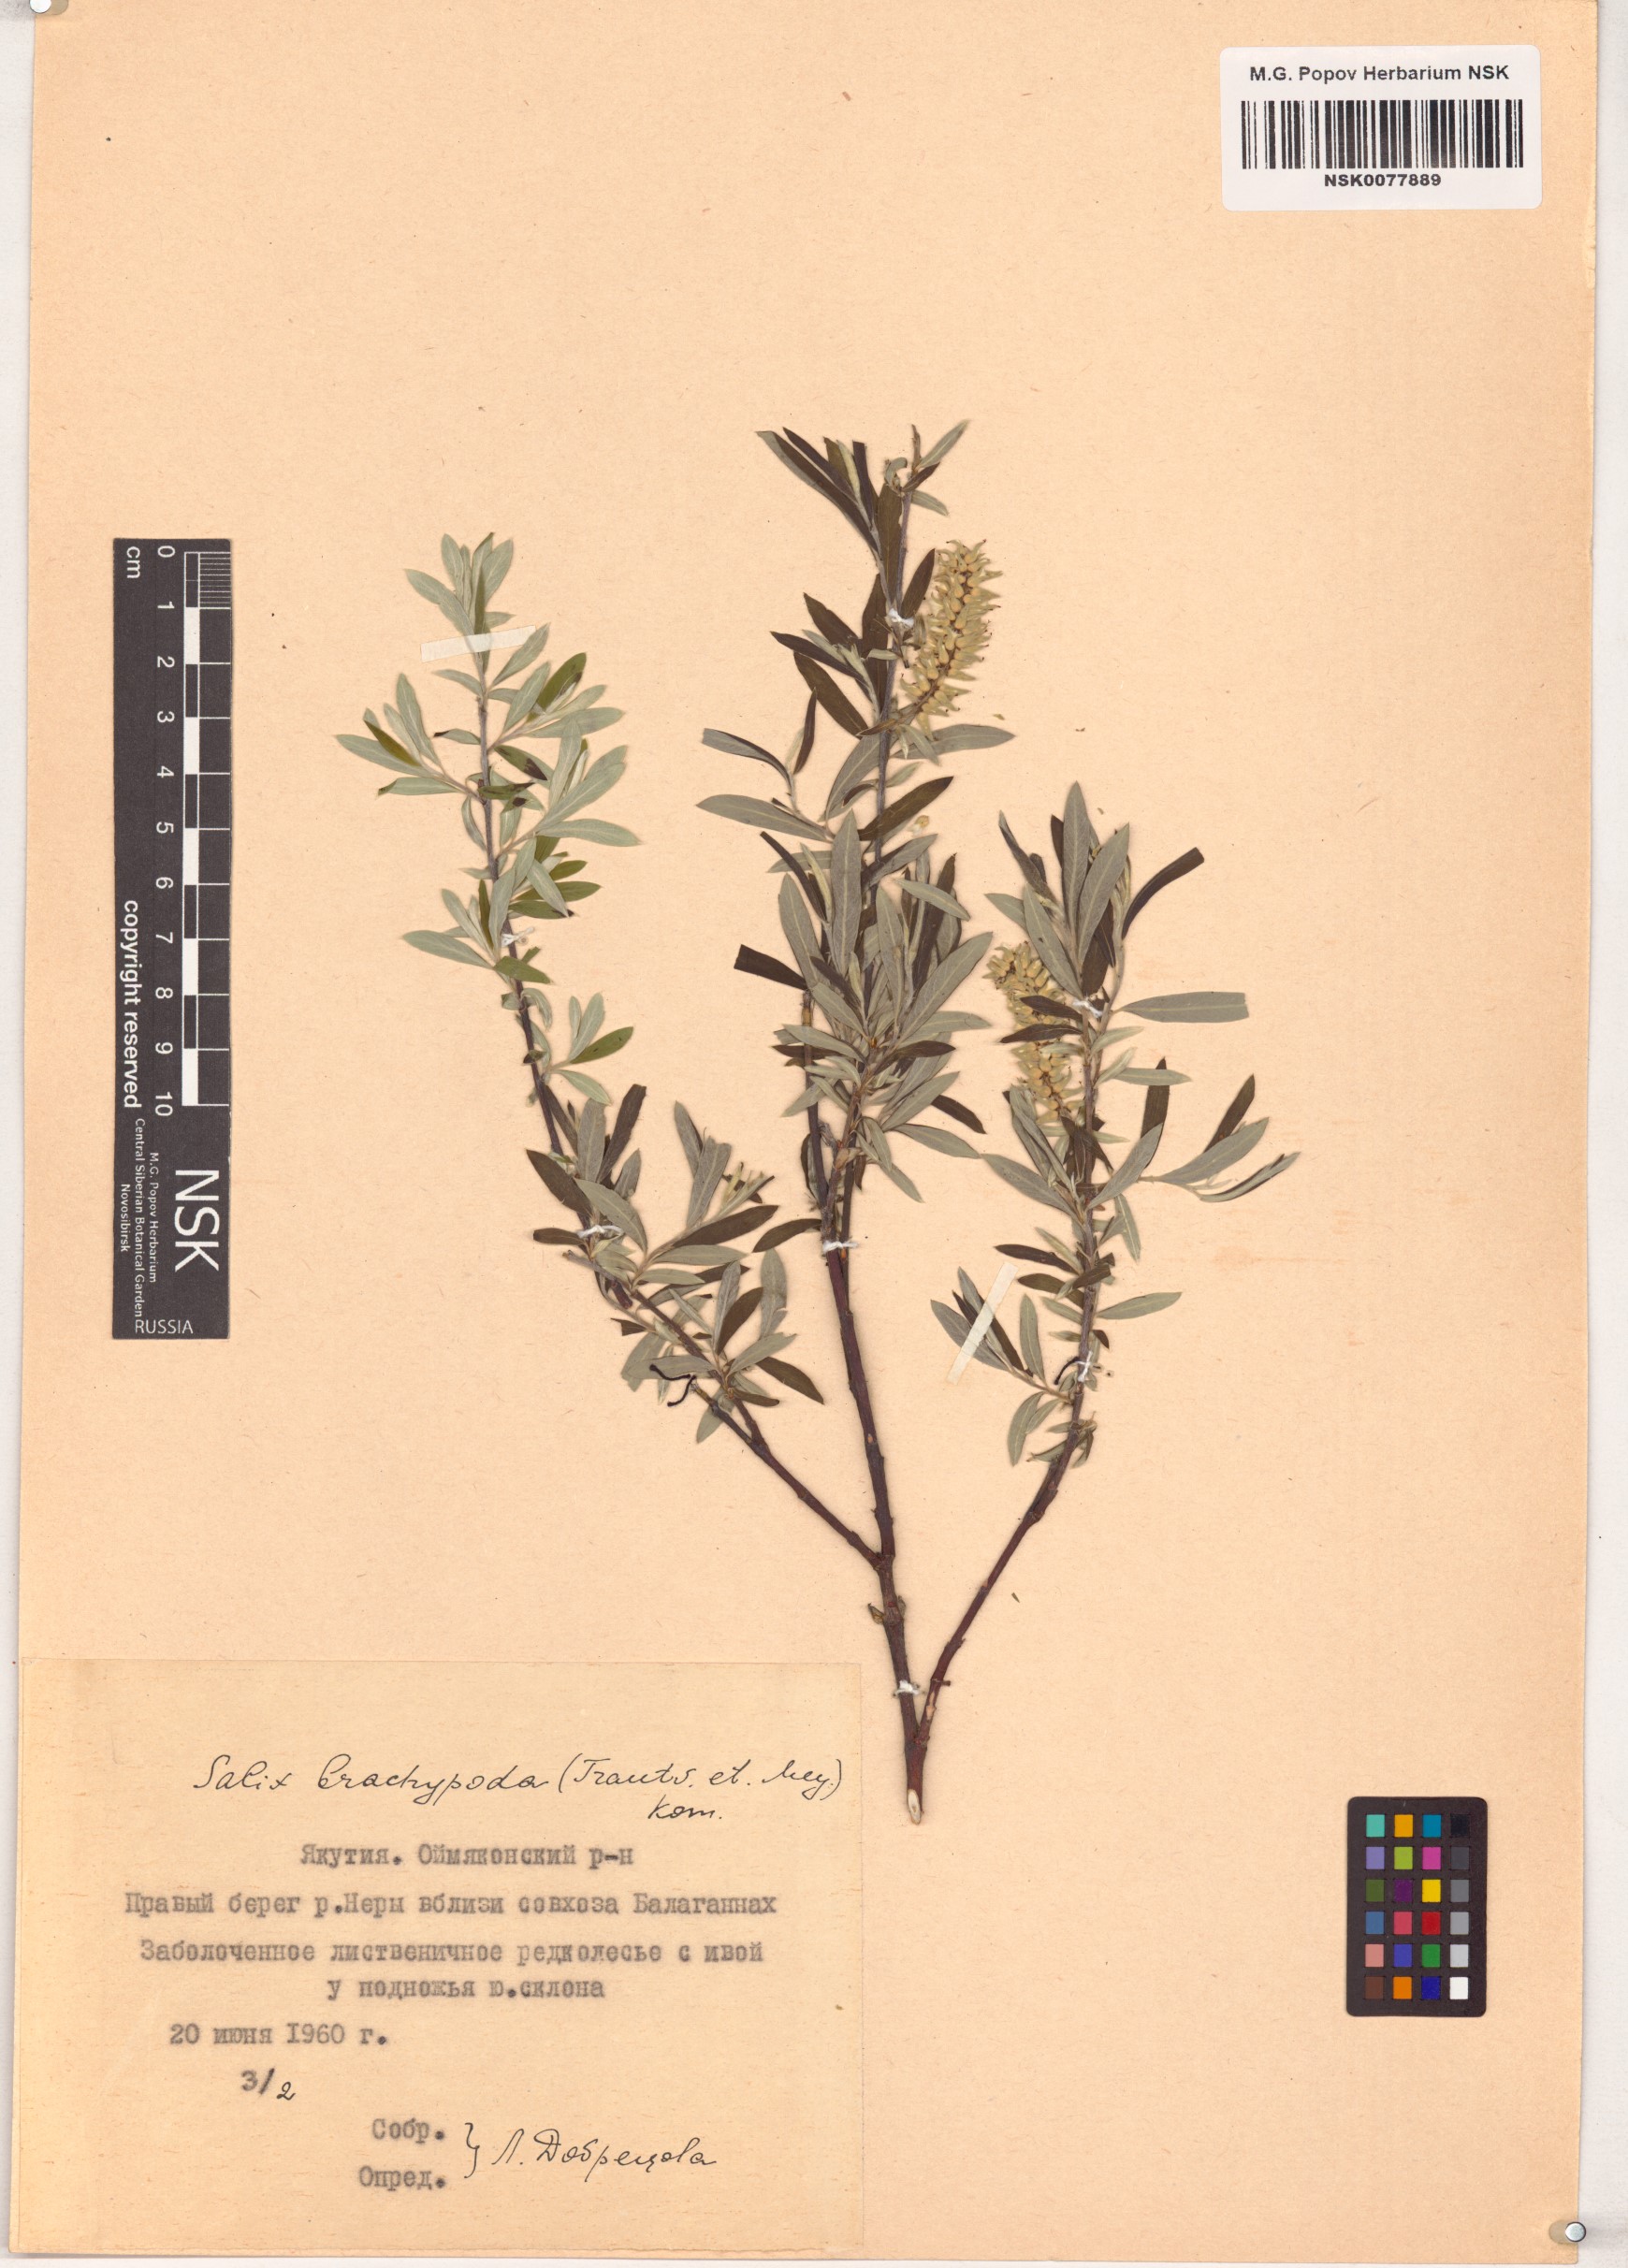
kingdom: Plantae
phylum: Tracheophyta
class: Magnoliopsida
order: Malpighiales
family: Salicaceae
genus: Salix
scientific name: Salix brachypoda
